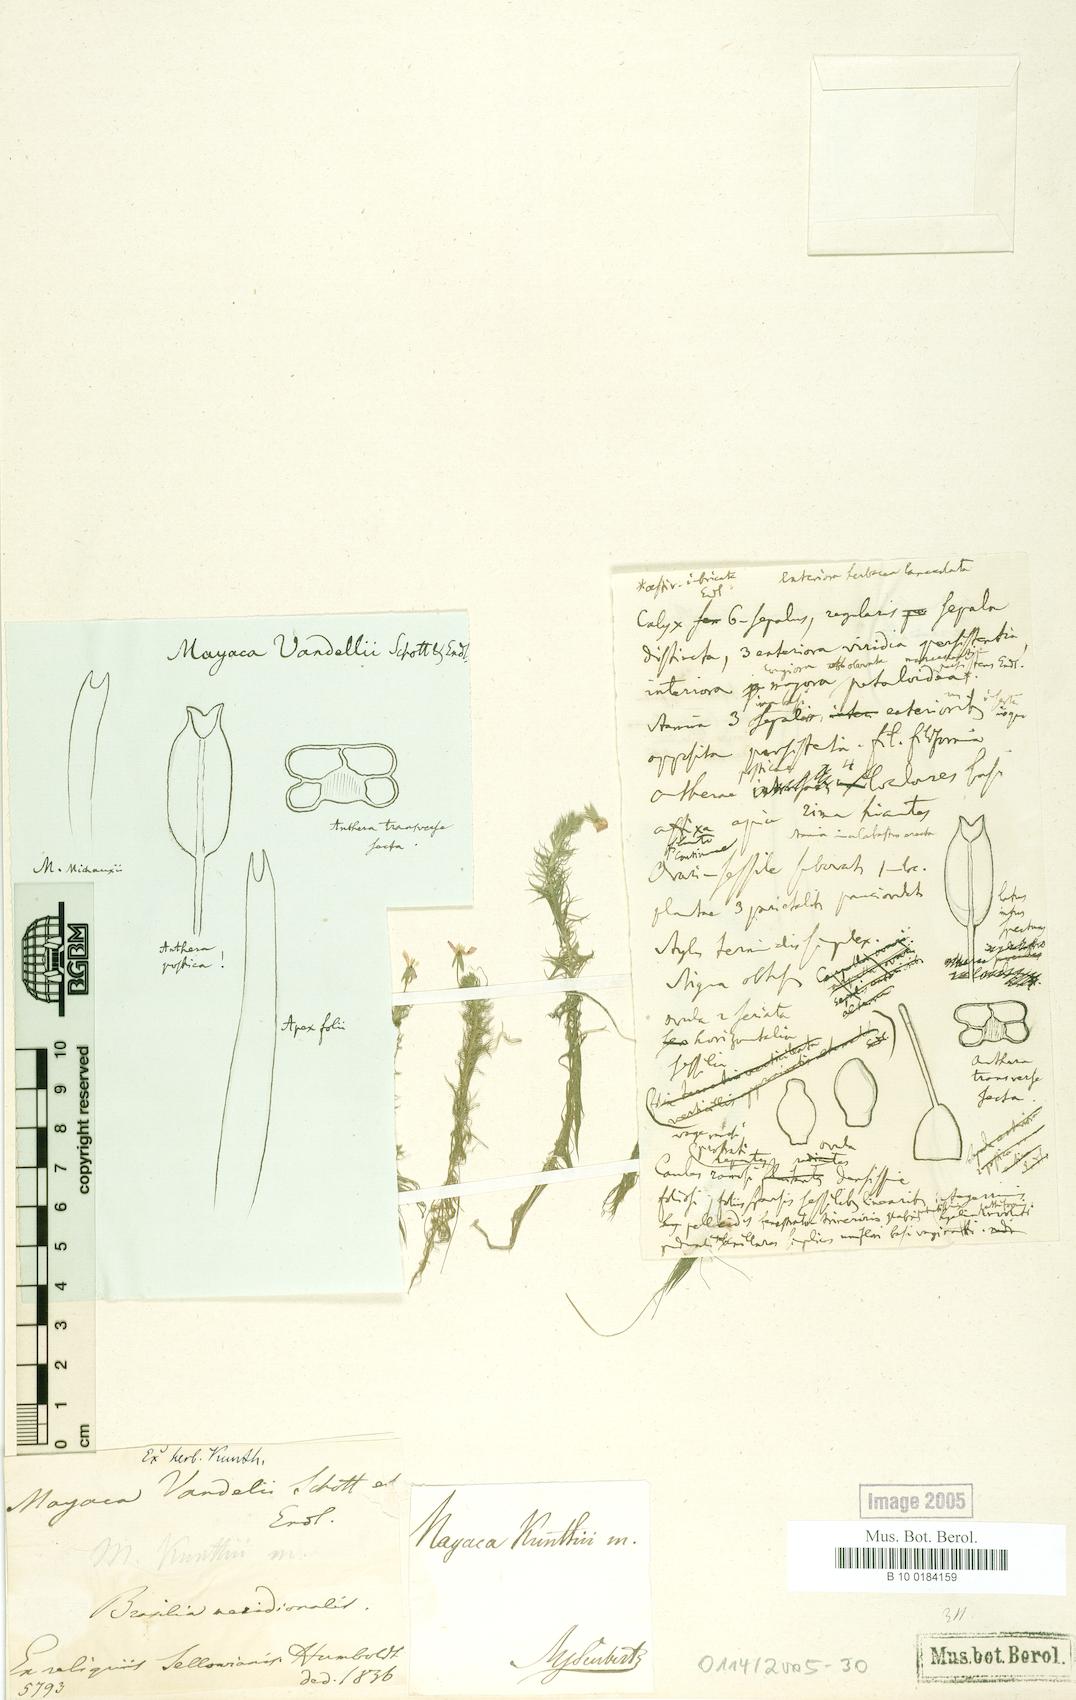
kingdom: Plantae
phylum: Tracheophyta
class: Liliopsida
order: Poales
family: Mayacaceae
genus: Mayaca
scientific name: Mayaca fluviatilis
